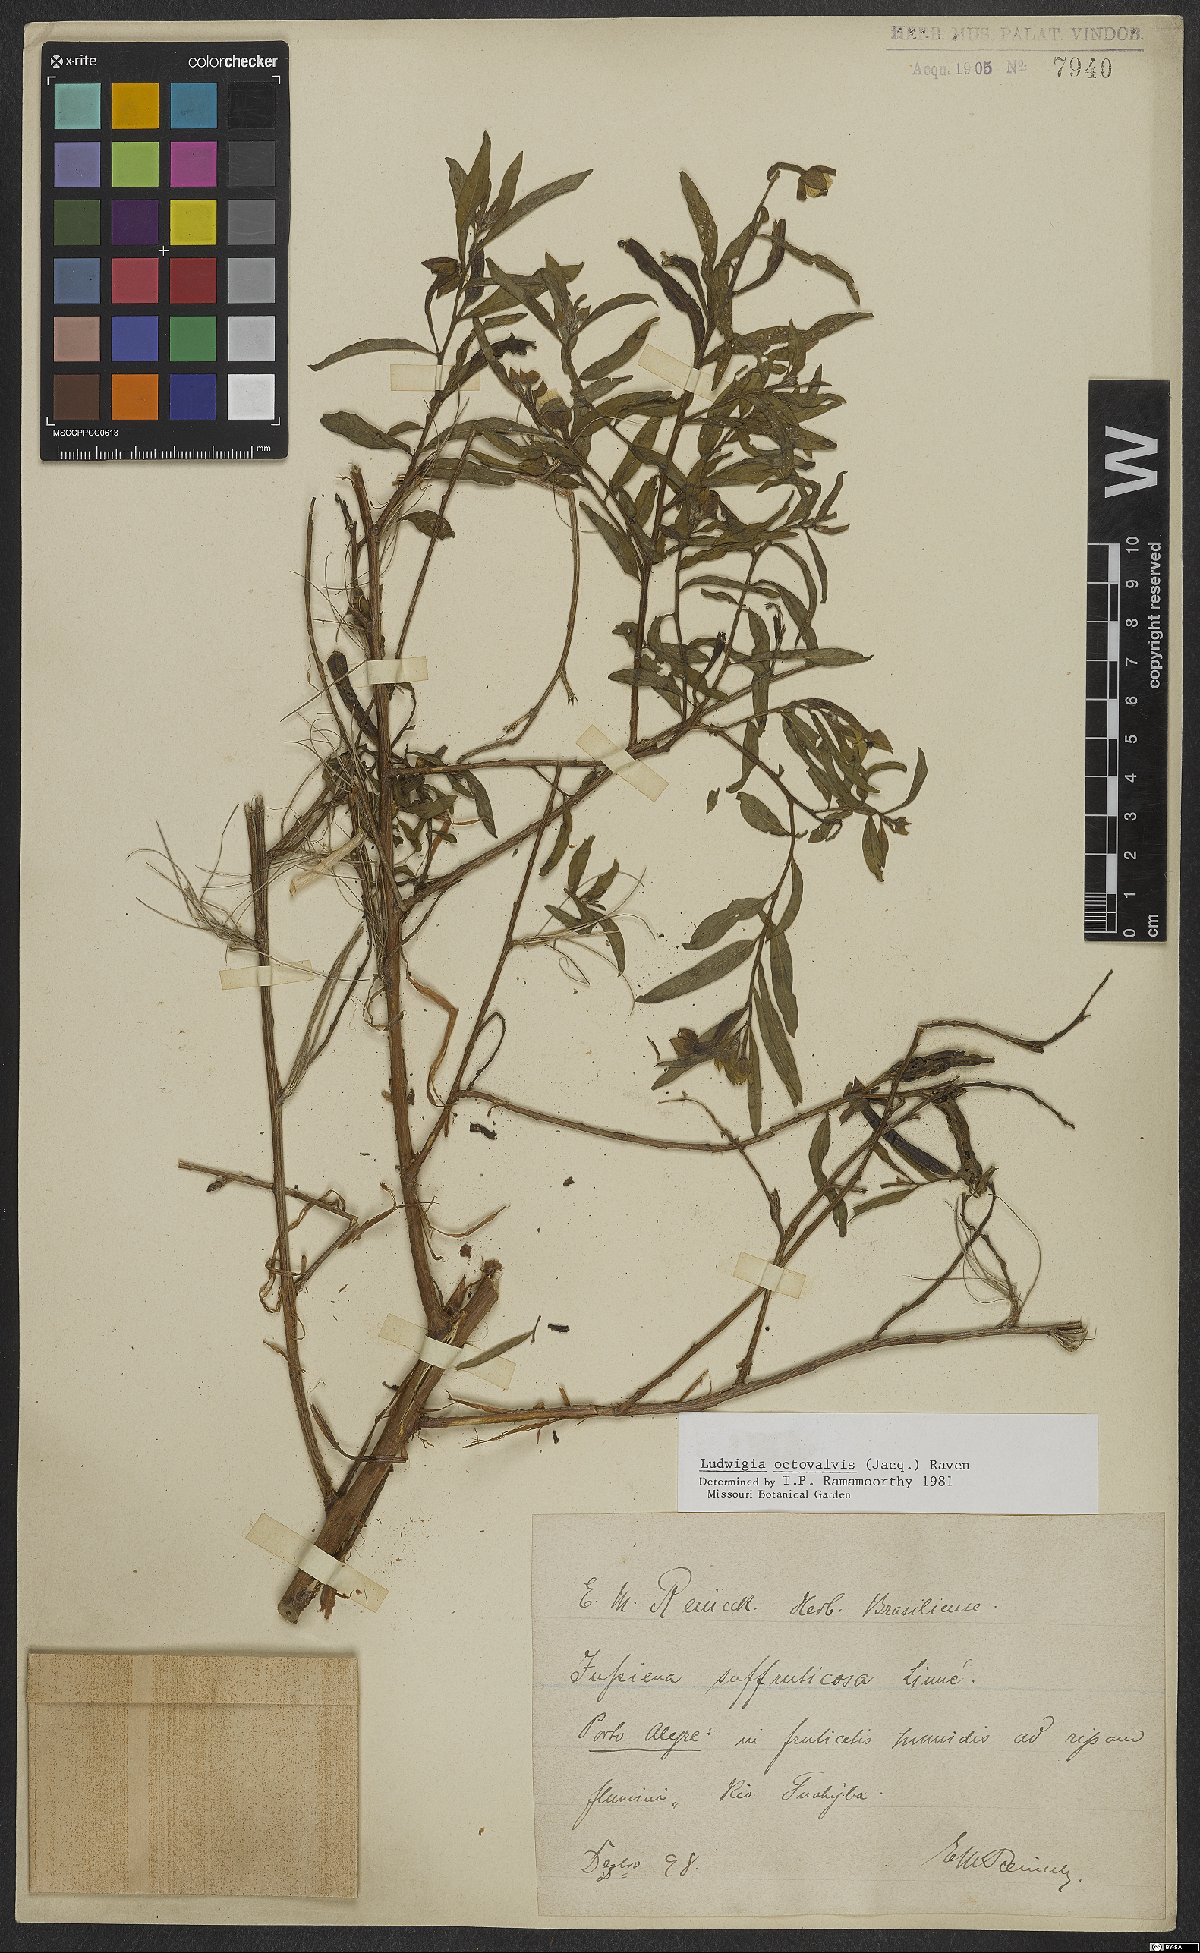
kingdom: Plantae
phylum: Tracheophyta
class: Magnoliopsida
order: Myrtales
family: Onagraceae
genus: Ludwigia
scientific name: Ludwigia octovalvis
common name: Water-primrose
